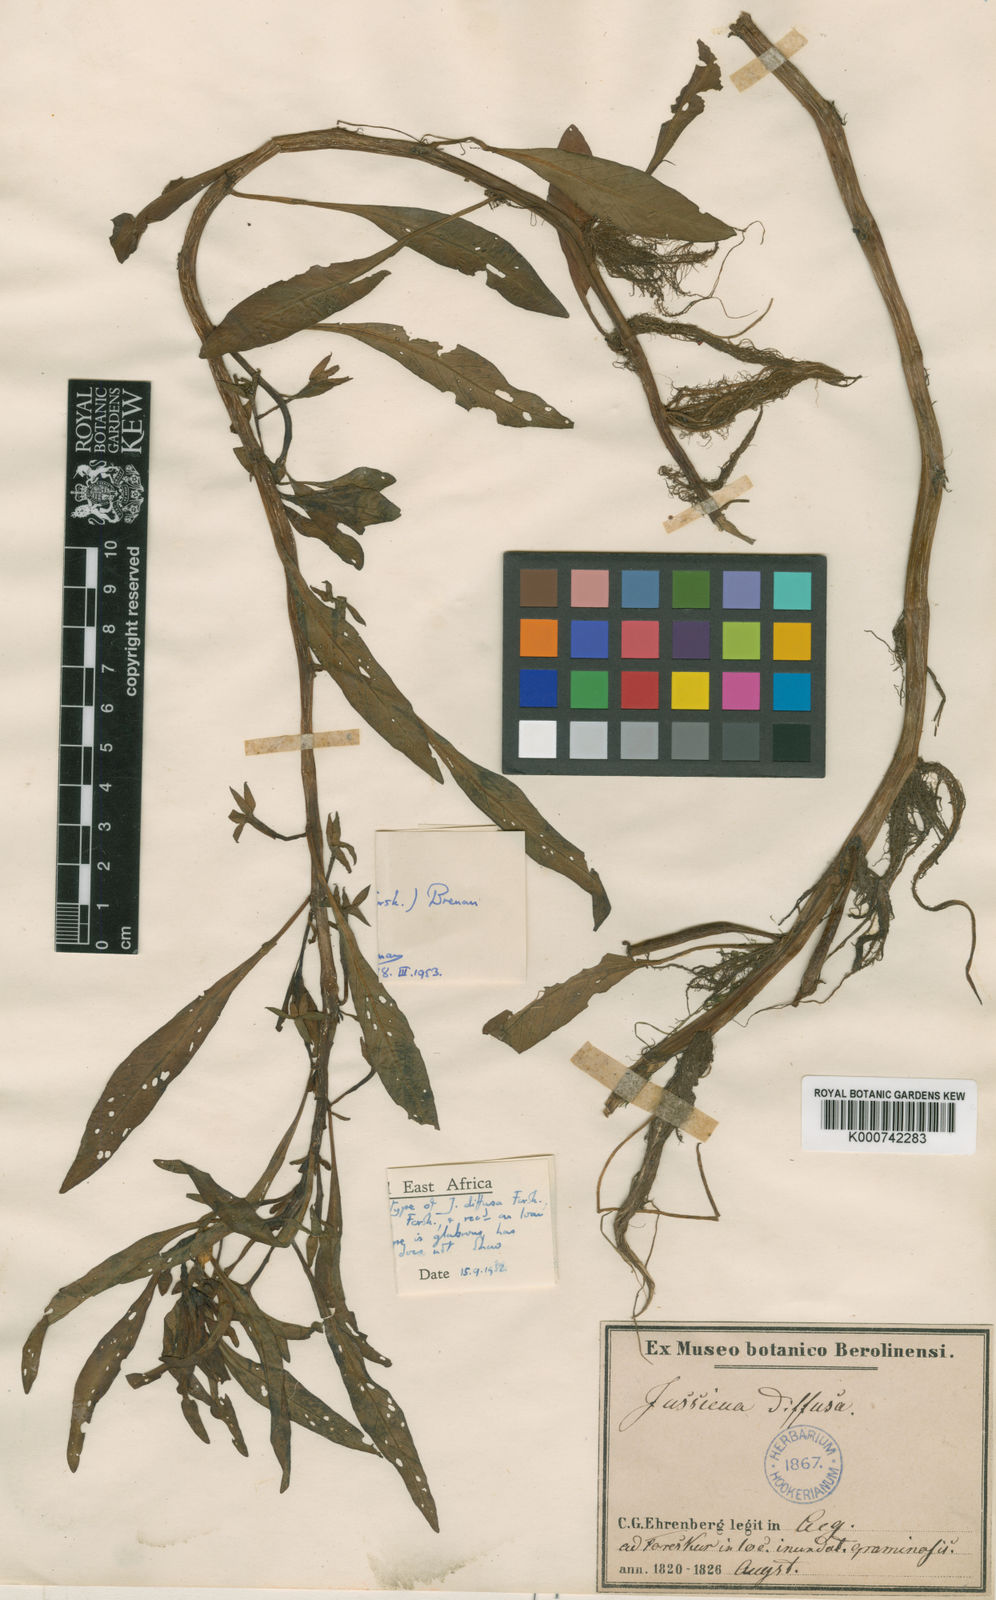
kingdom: Plantae
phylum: Tracheophyta
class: Magnoliopsida
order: Myrtales
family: Onagraceae
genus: Ludwigia
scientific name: Ludwigia repens
